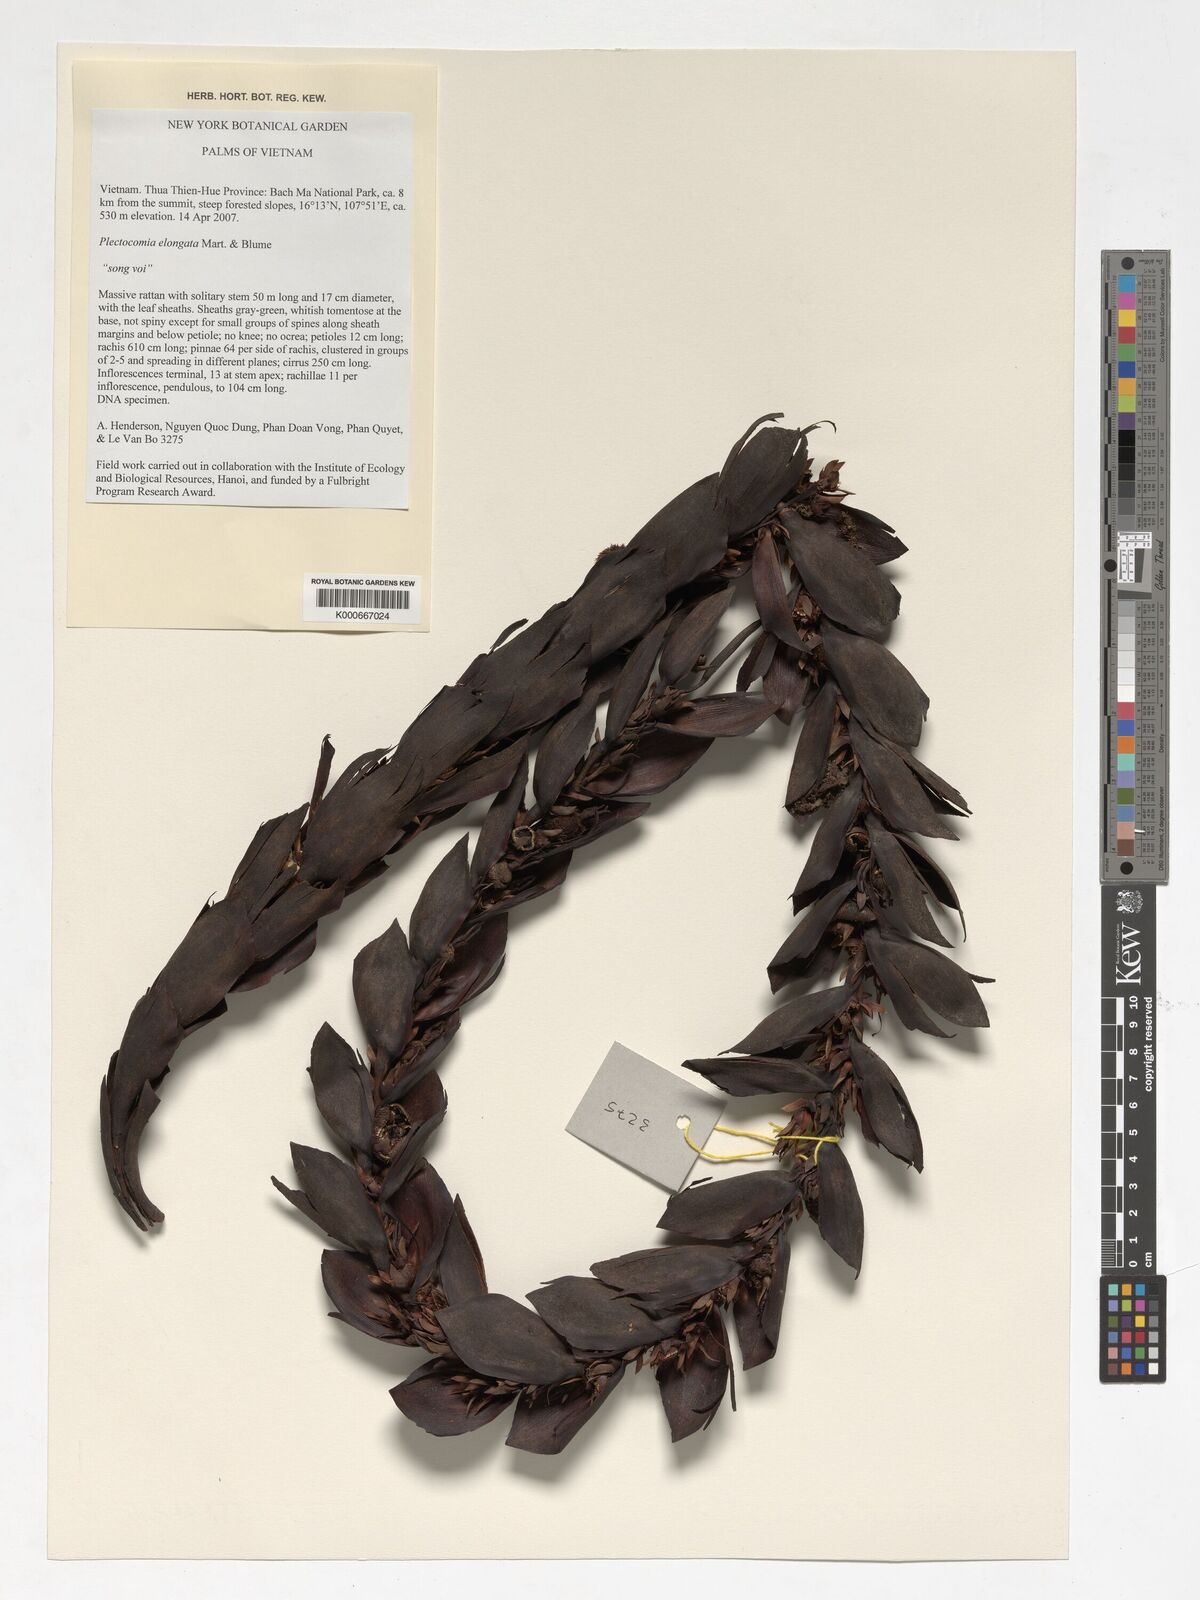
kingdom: Plantae
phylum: Tracheophyta
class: Liliopsida
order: Arecales
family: Arecaceae
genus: Plectocomia
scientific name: Plectocomia elongata
